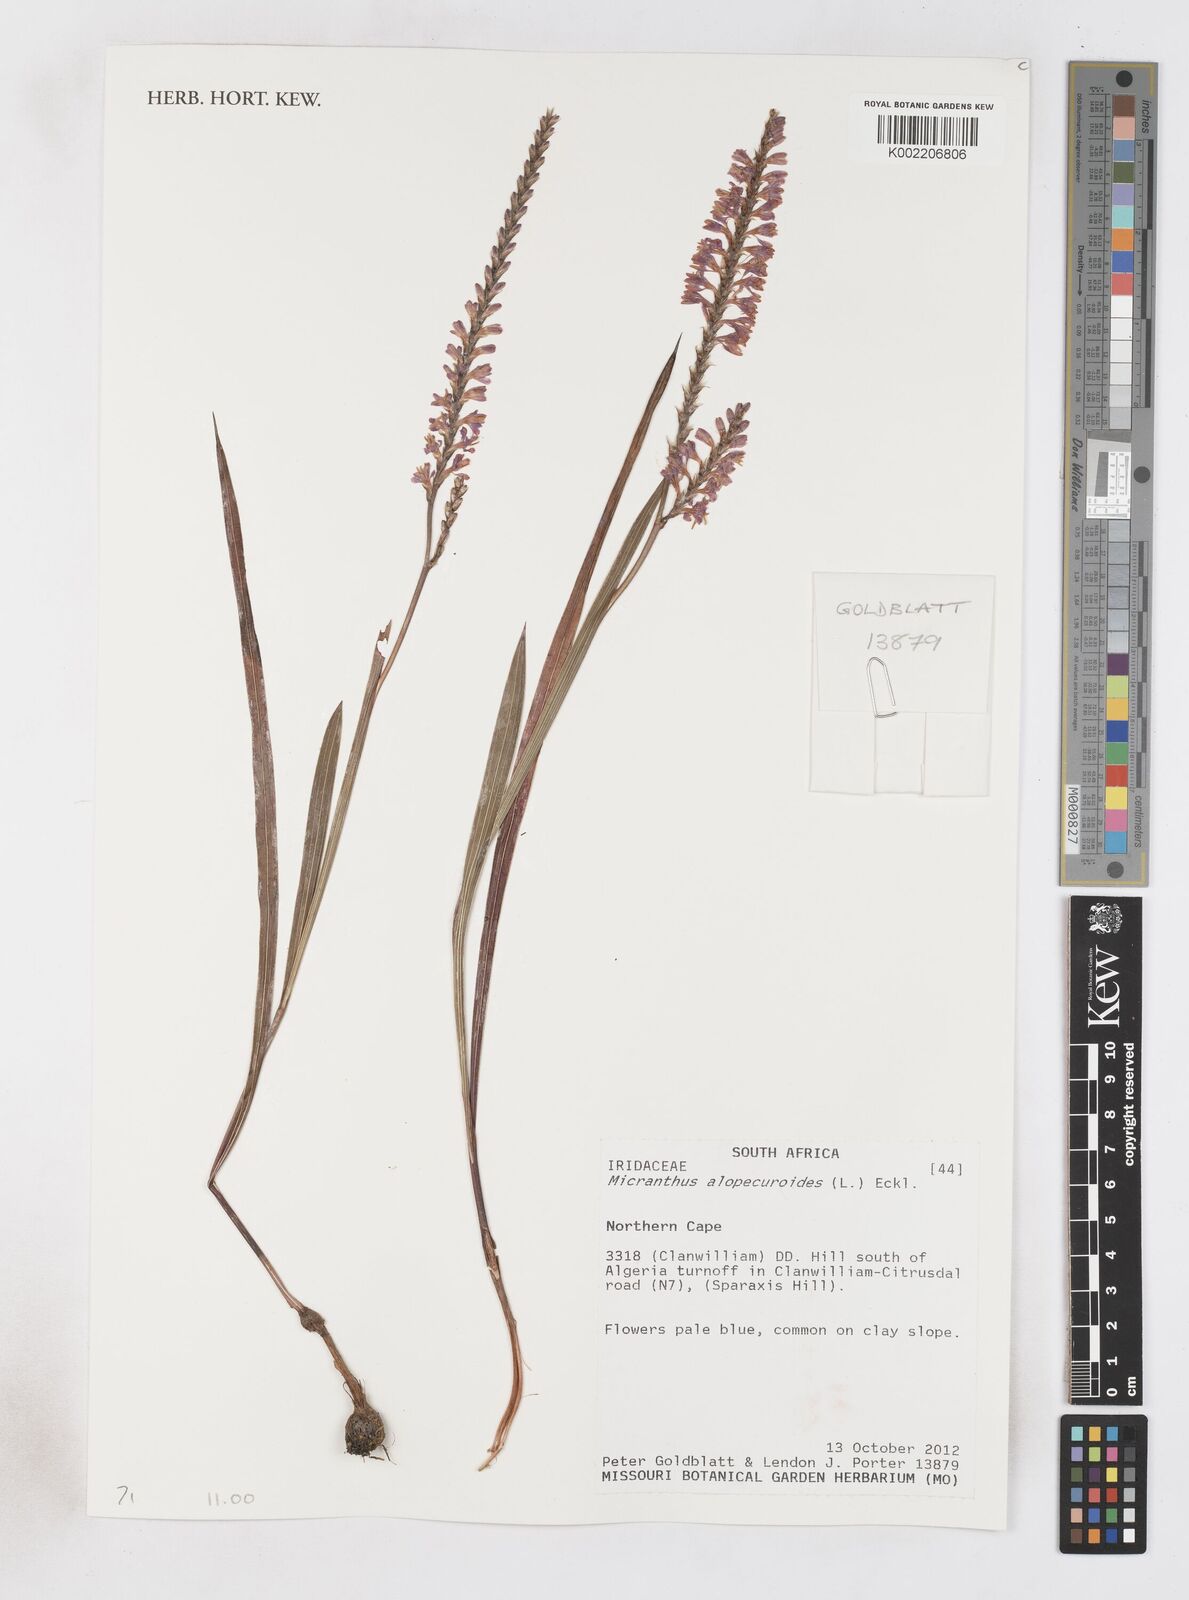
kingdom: Plantae
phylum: Tracheophyta
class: Liliopsida
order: Asparagales
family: Iridaceae
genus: Micranthus
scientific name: Micranthus alopecuroides
